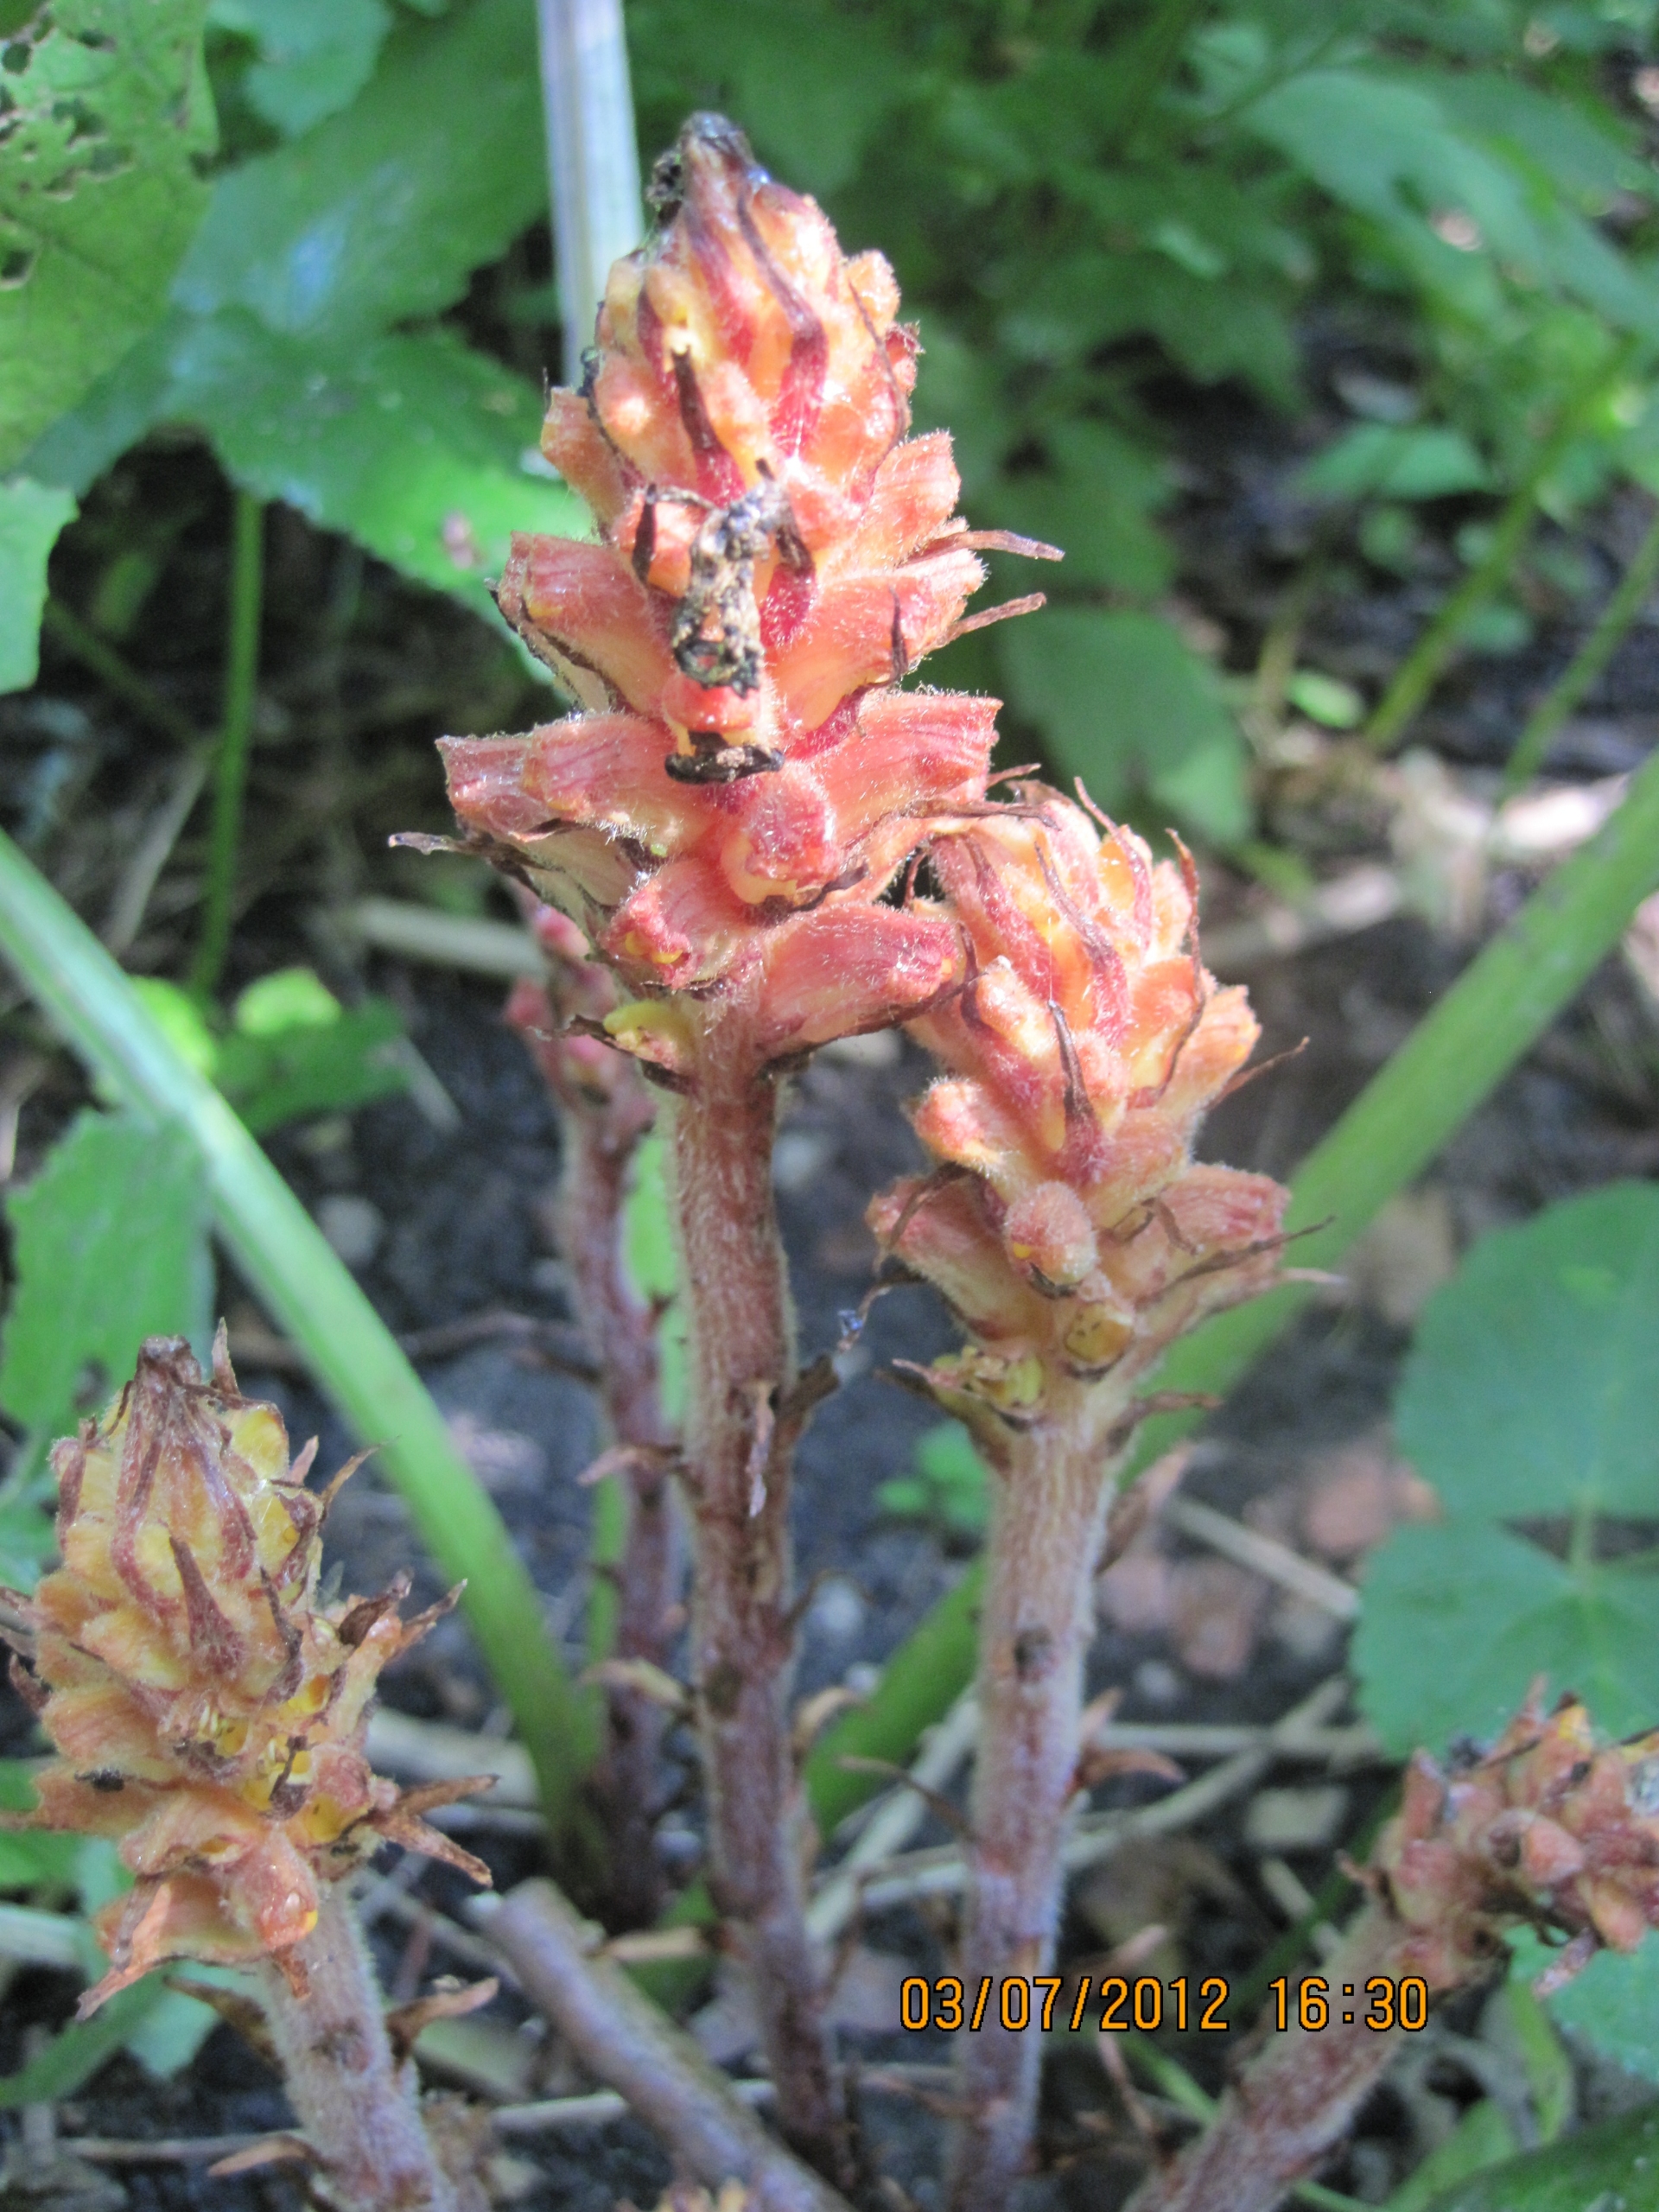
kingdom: Plantae
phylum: Tracheophyta
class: Magnoliopsida
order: Lamiales
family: Orobanchaceae
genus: Orobanche
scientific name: Orobanche flava
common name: Gul gyvelkvæler
